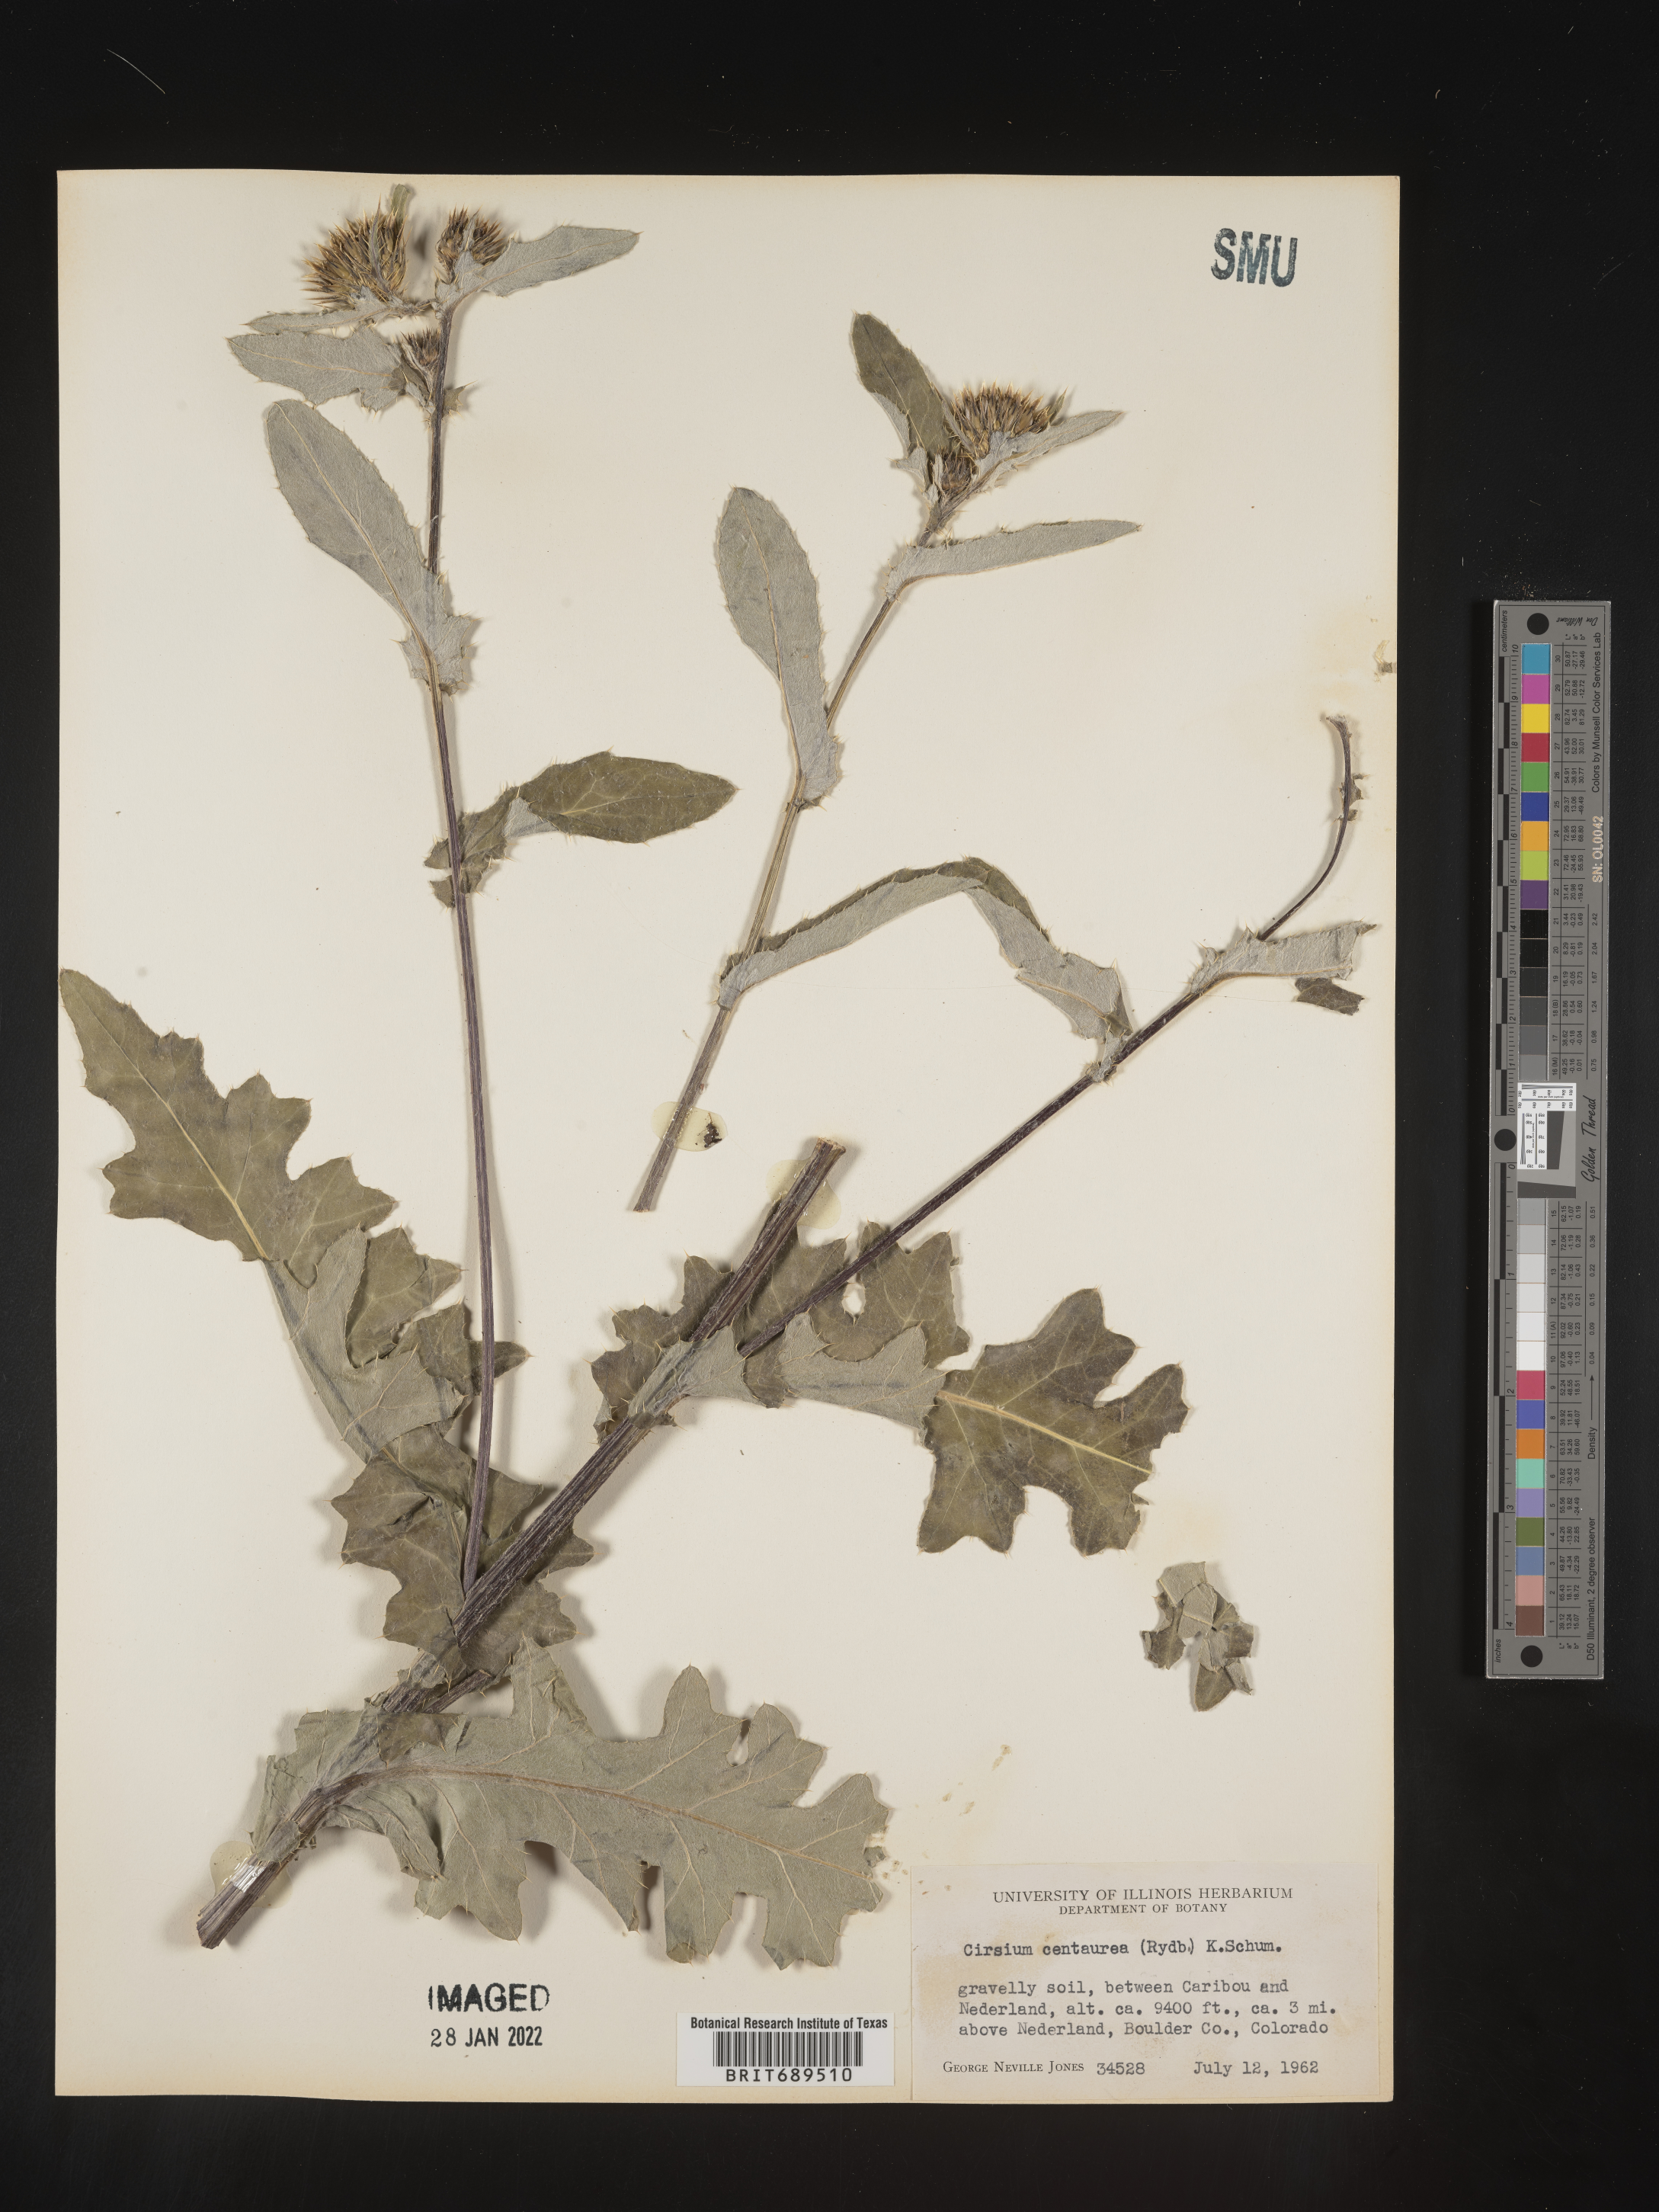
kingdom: Plantae
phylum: Tracheophyta
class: Magnoliopsida
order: Asterales
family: Asteraceae
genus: Cirsium
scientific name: Cirsium centaureae
